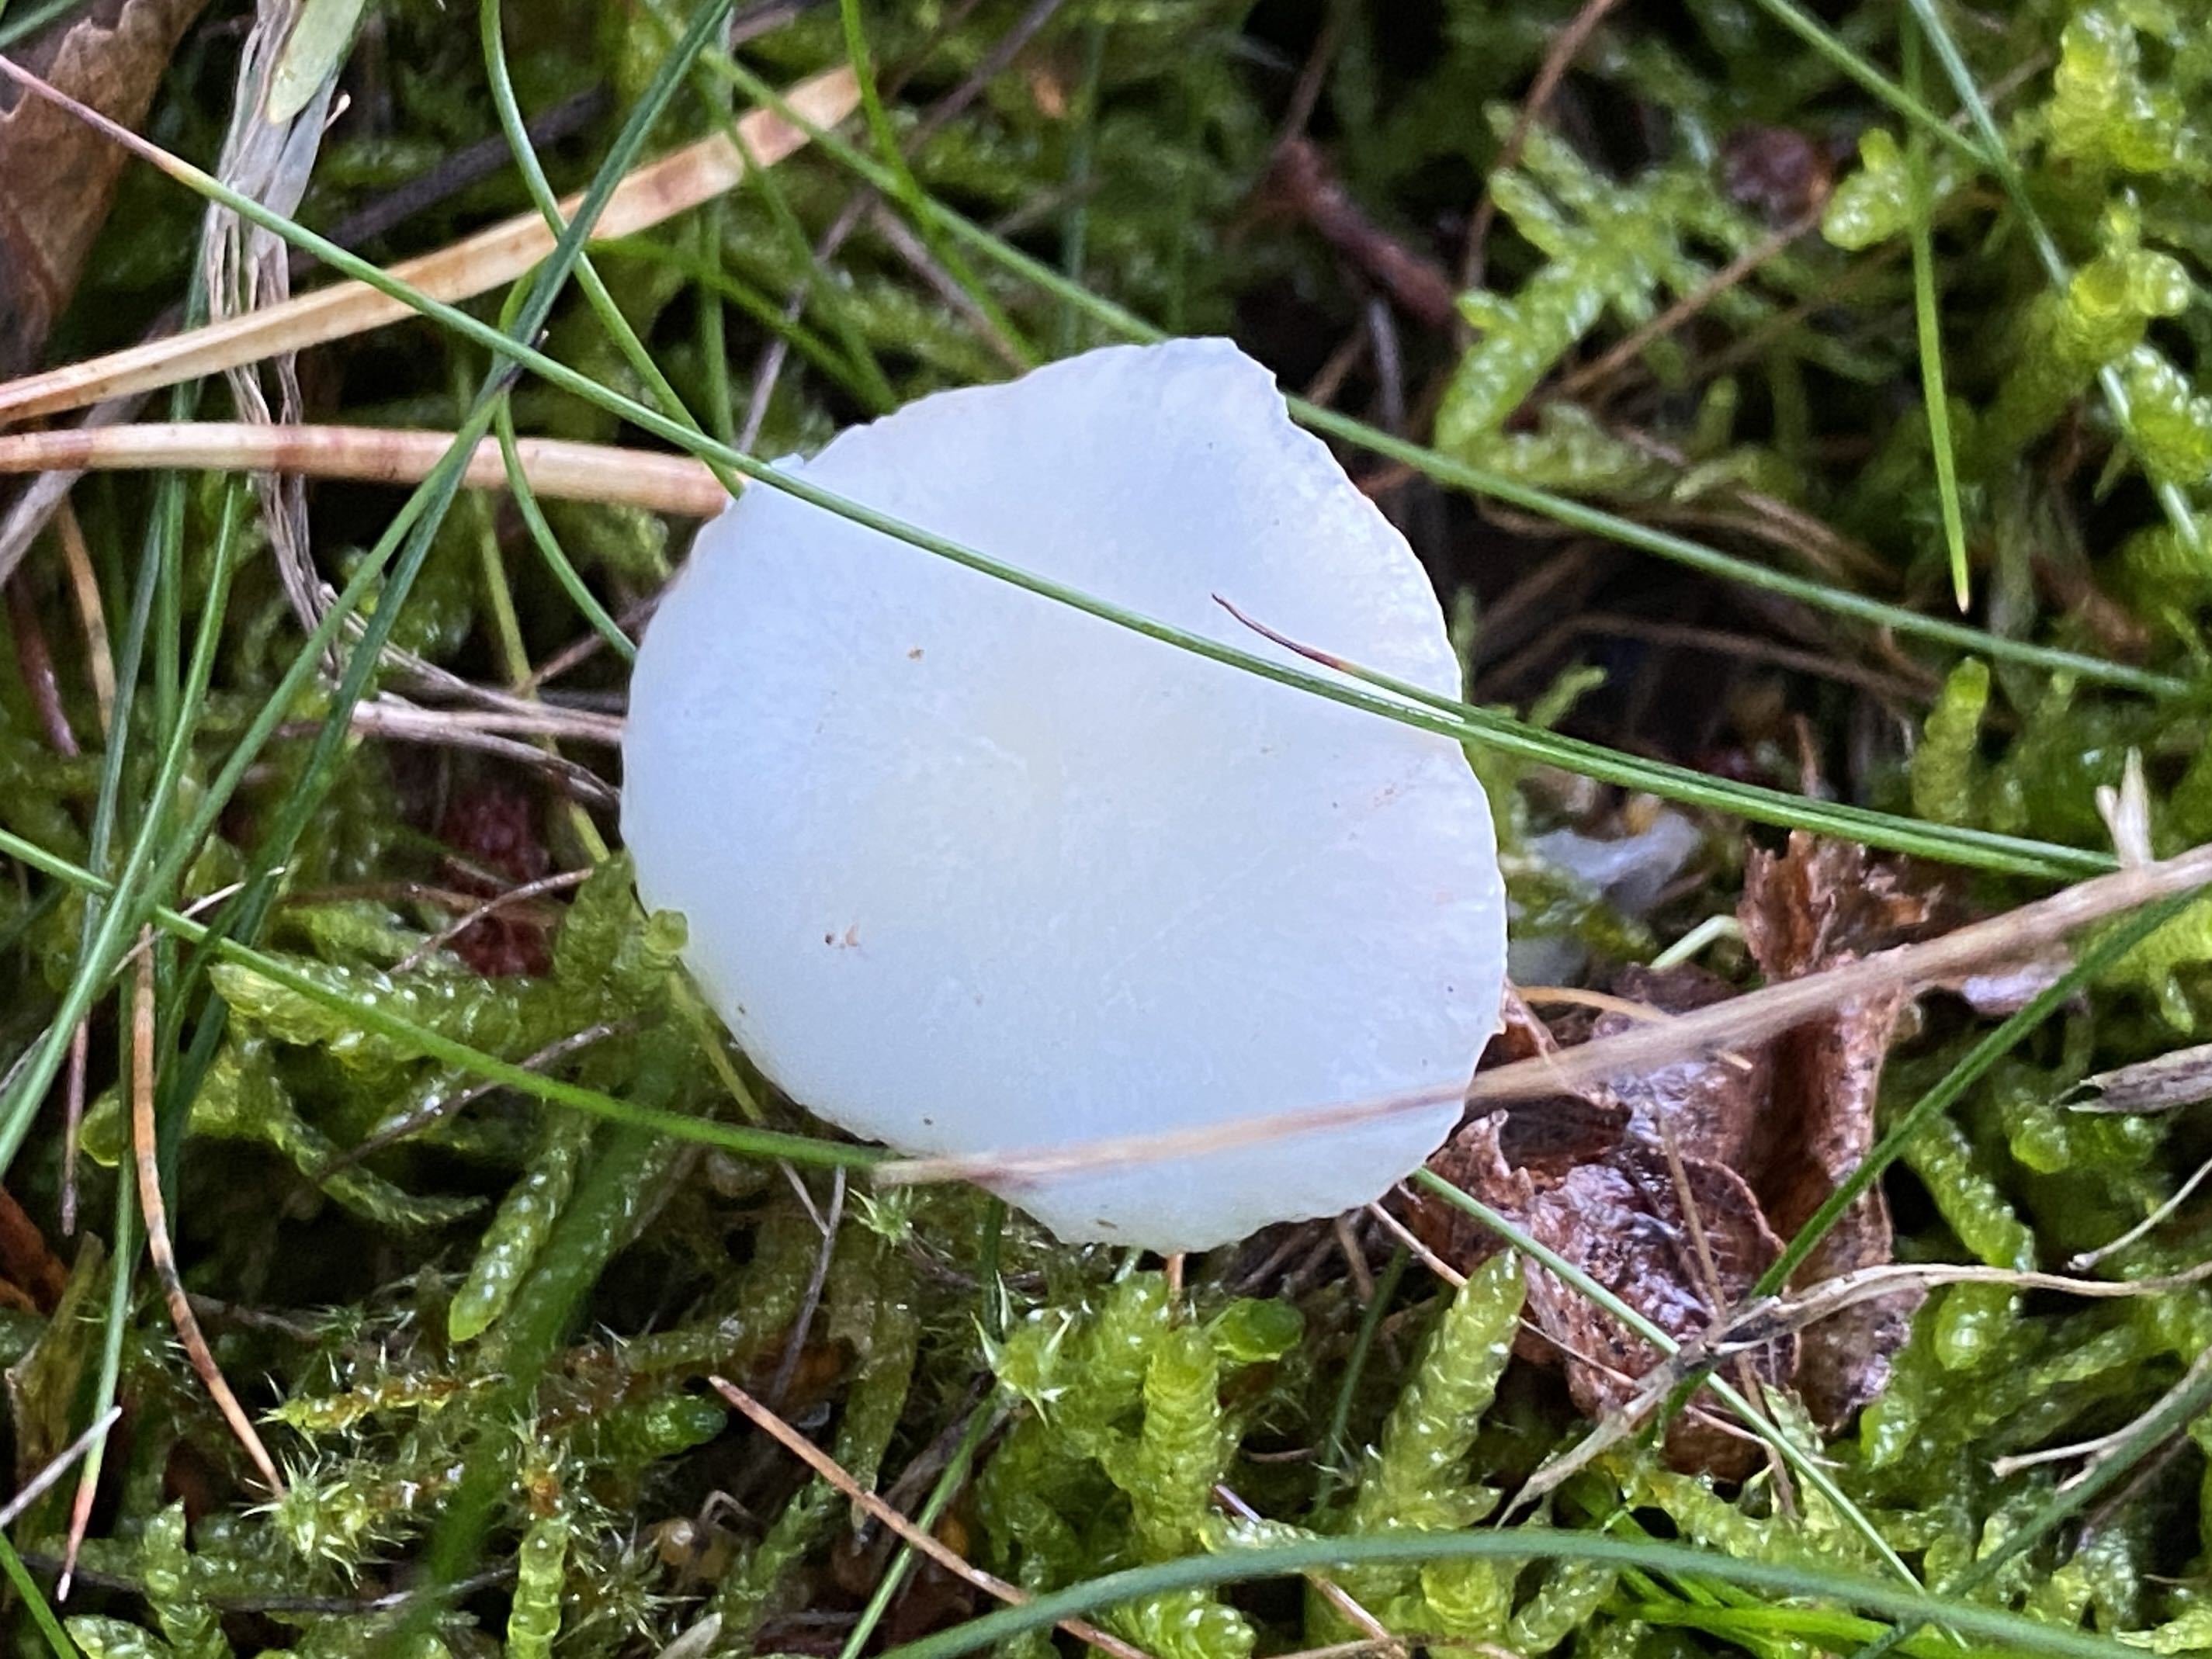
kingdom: Fungi
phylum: Basidiomycota
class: Agaricomycetes
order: Russulales
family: Russulaceae
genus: Russula
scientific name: Russula betularum
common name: bleg gift-skørhat
